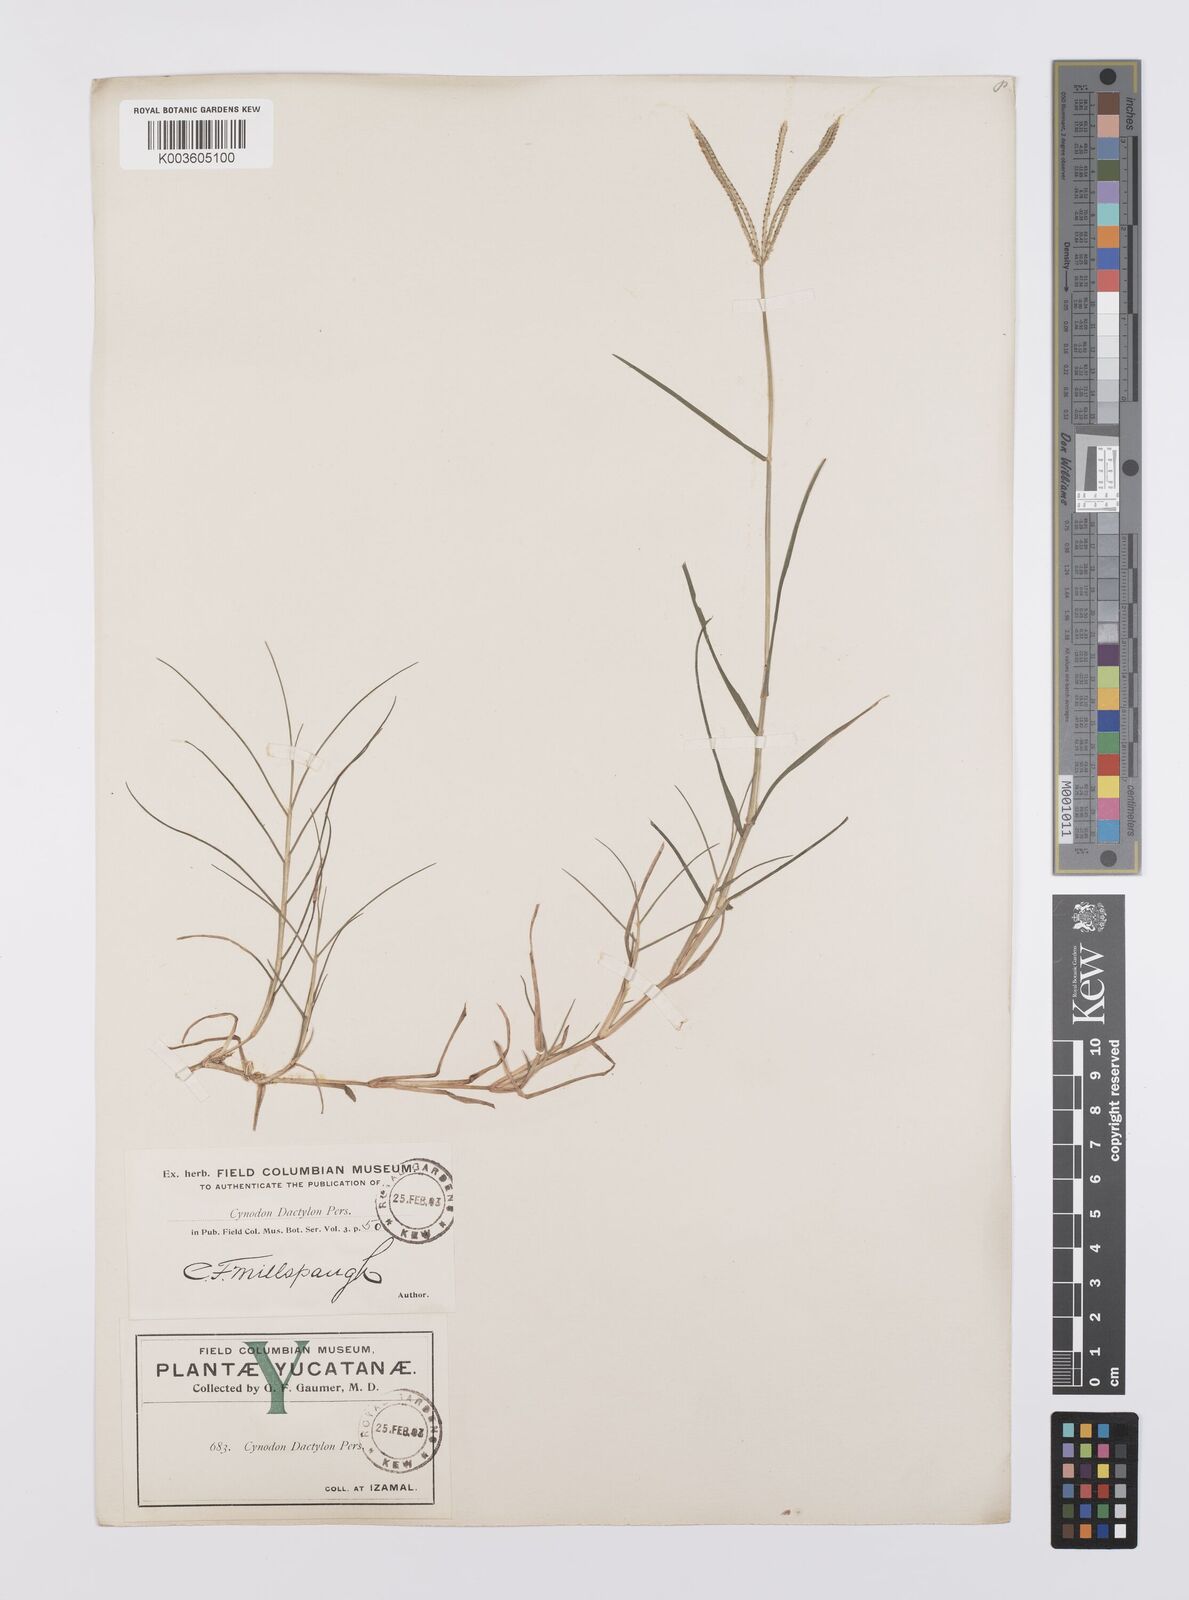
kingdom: Plantae
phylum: Tracheophyta
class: Liliopsida
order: Poales
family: Poaceae
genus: Cynodon
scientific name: Cynodon dactylon
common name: Bermuda grass
